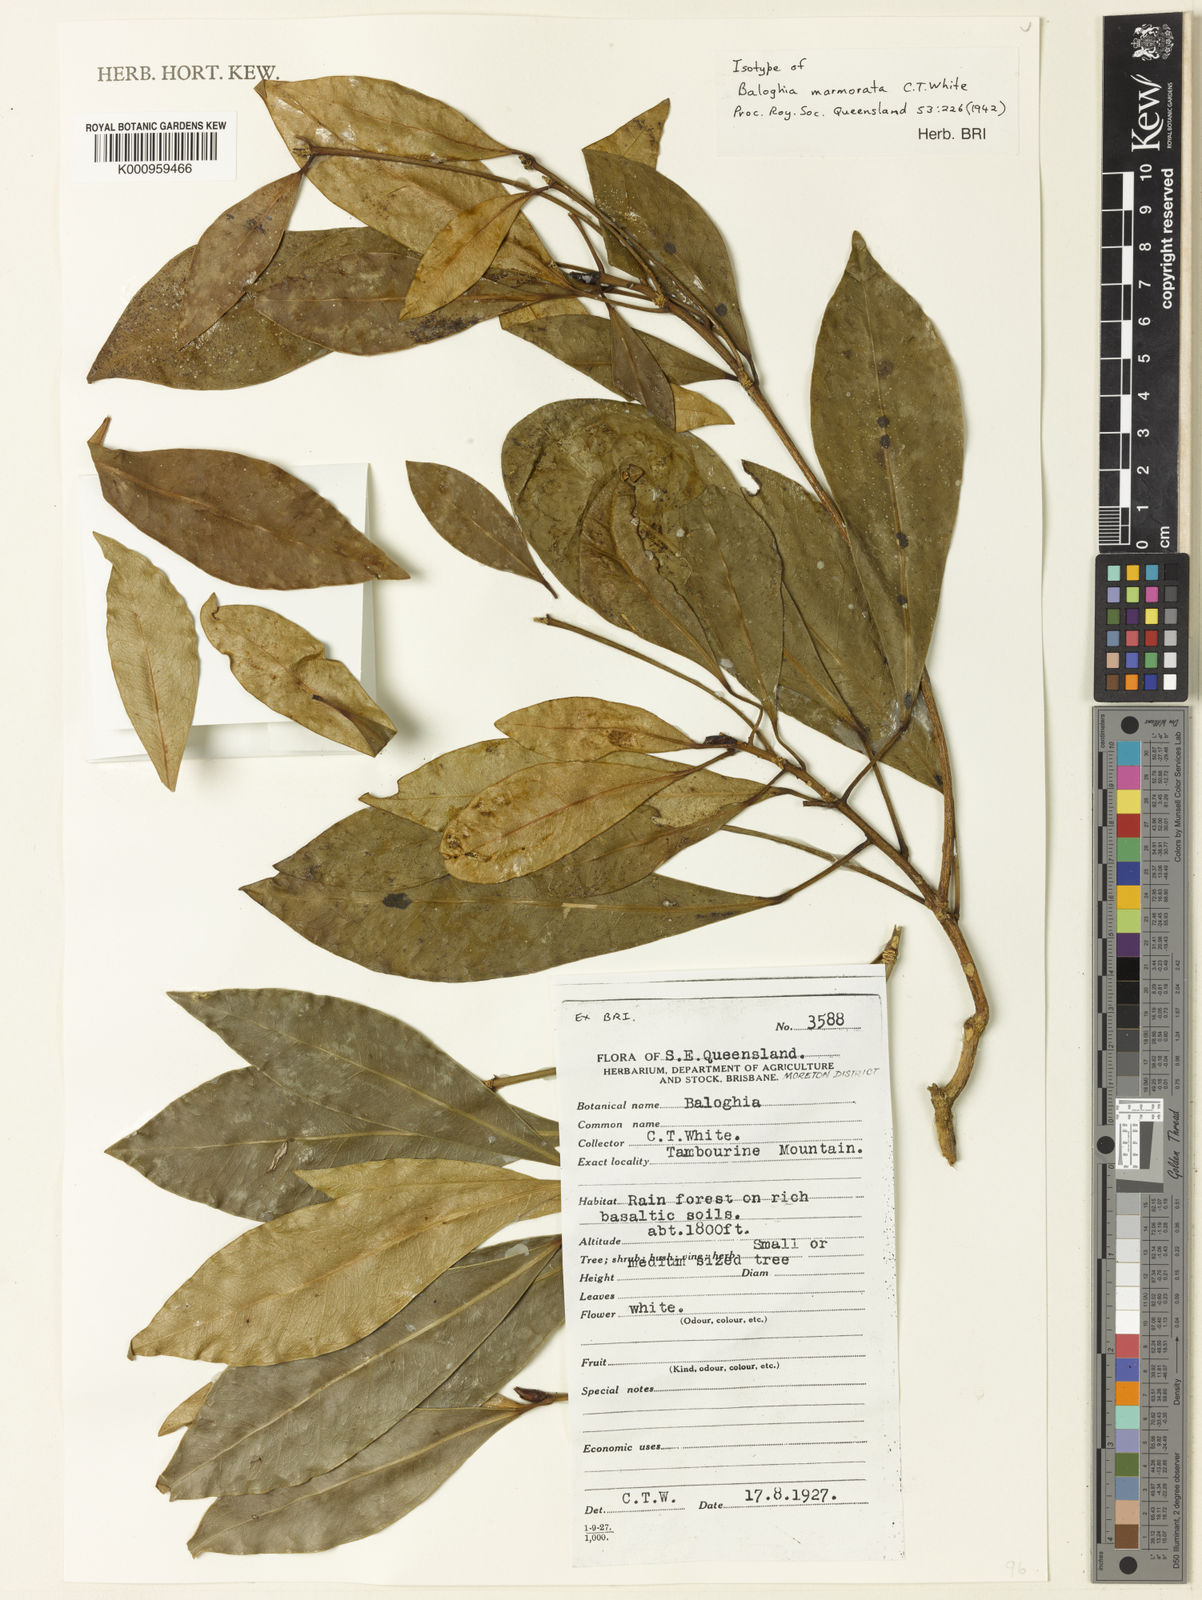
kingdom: Plantae
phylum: Tracheophyta
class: Magnoliopsida
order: Malpighiales
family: Euphorbiaceae
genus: Baloghia
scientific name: Baloghia marmorata
